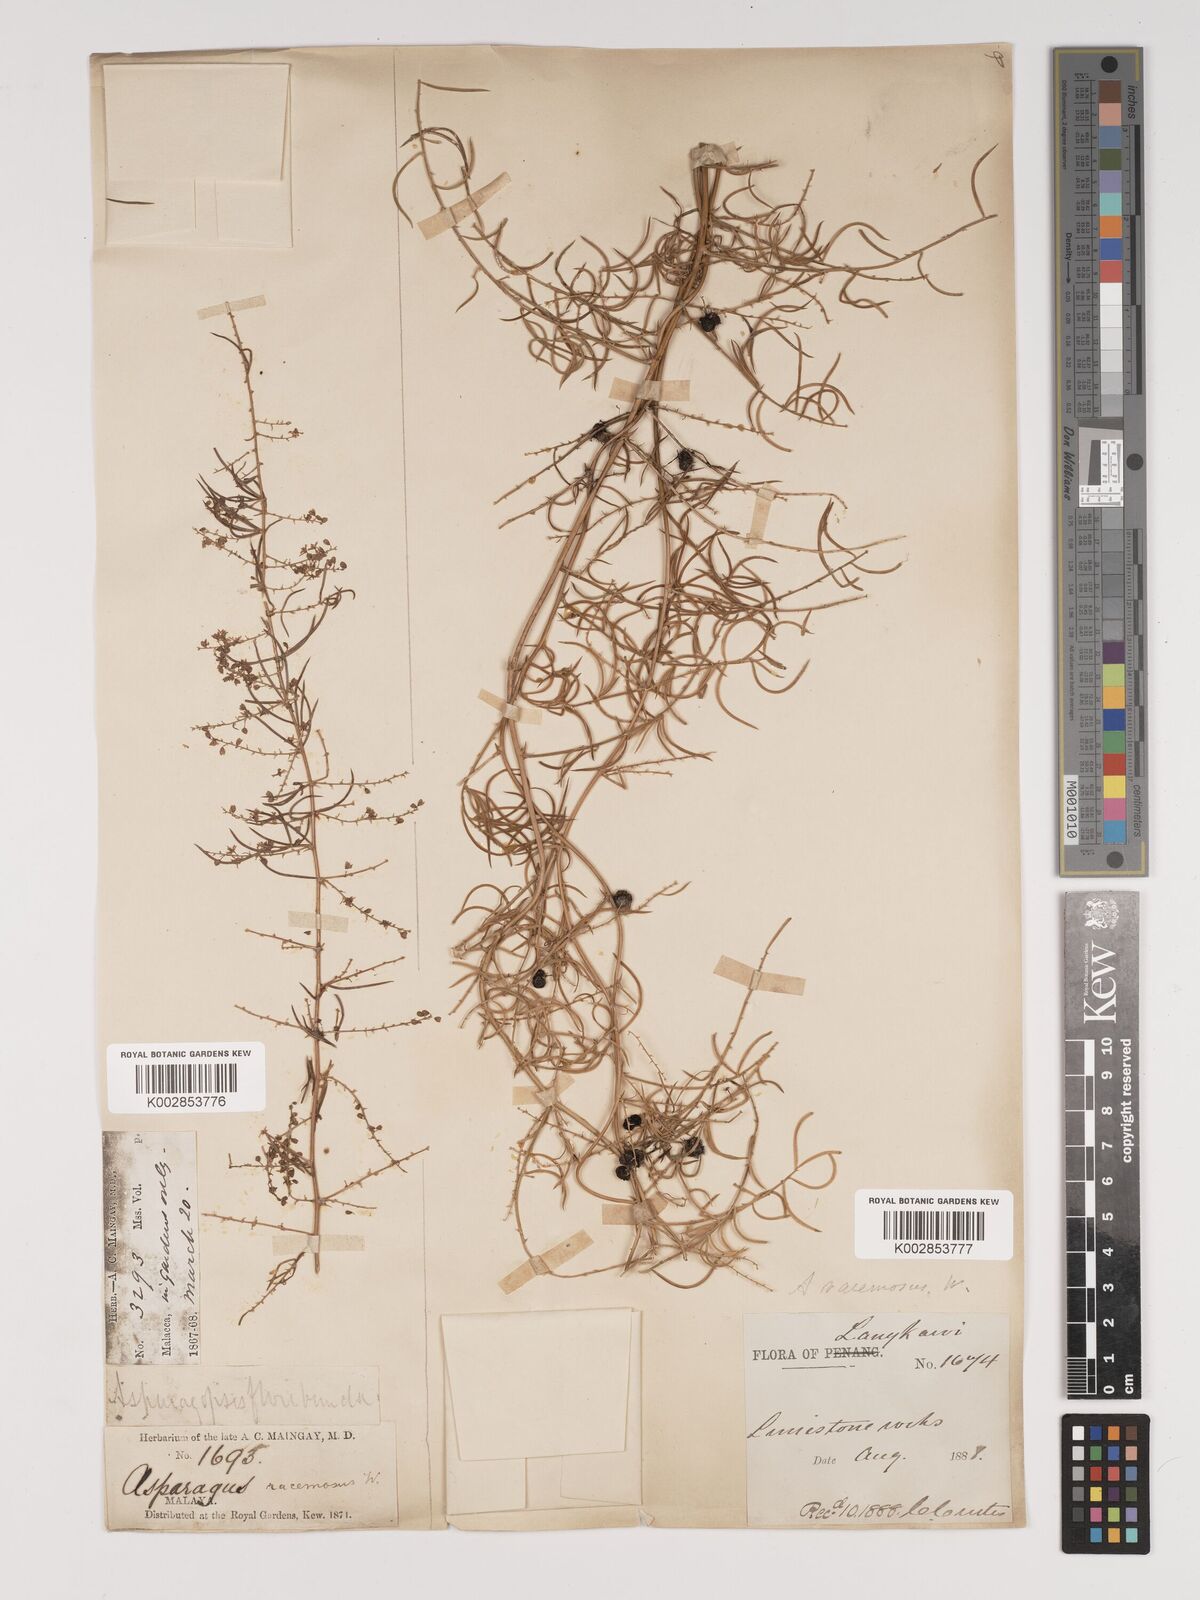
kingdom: Plantae
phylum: Tracheophyta
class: Liliopsida
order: Asparagales
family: Asparagaceae
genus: Asparagus
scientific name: Asparagus racemosus
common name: Asparagus-fern
